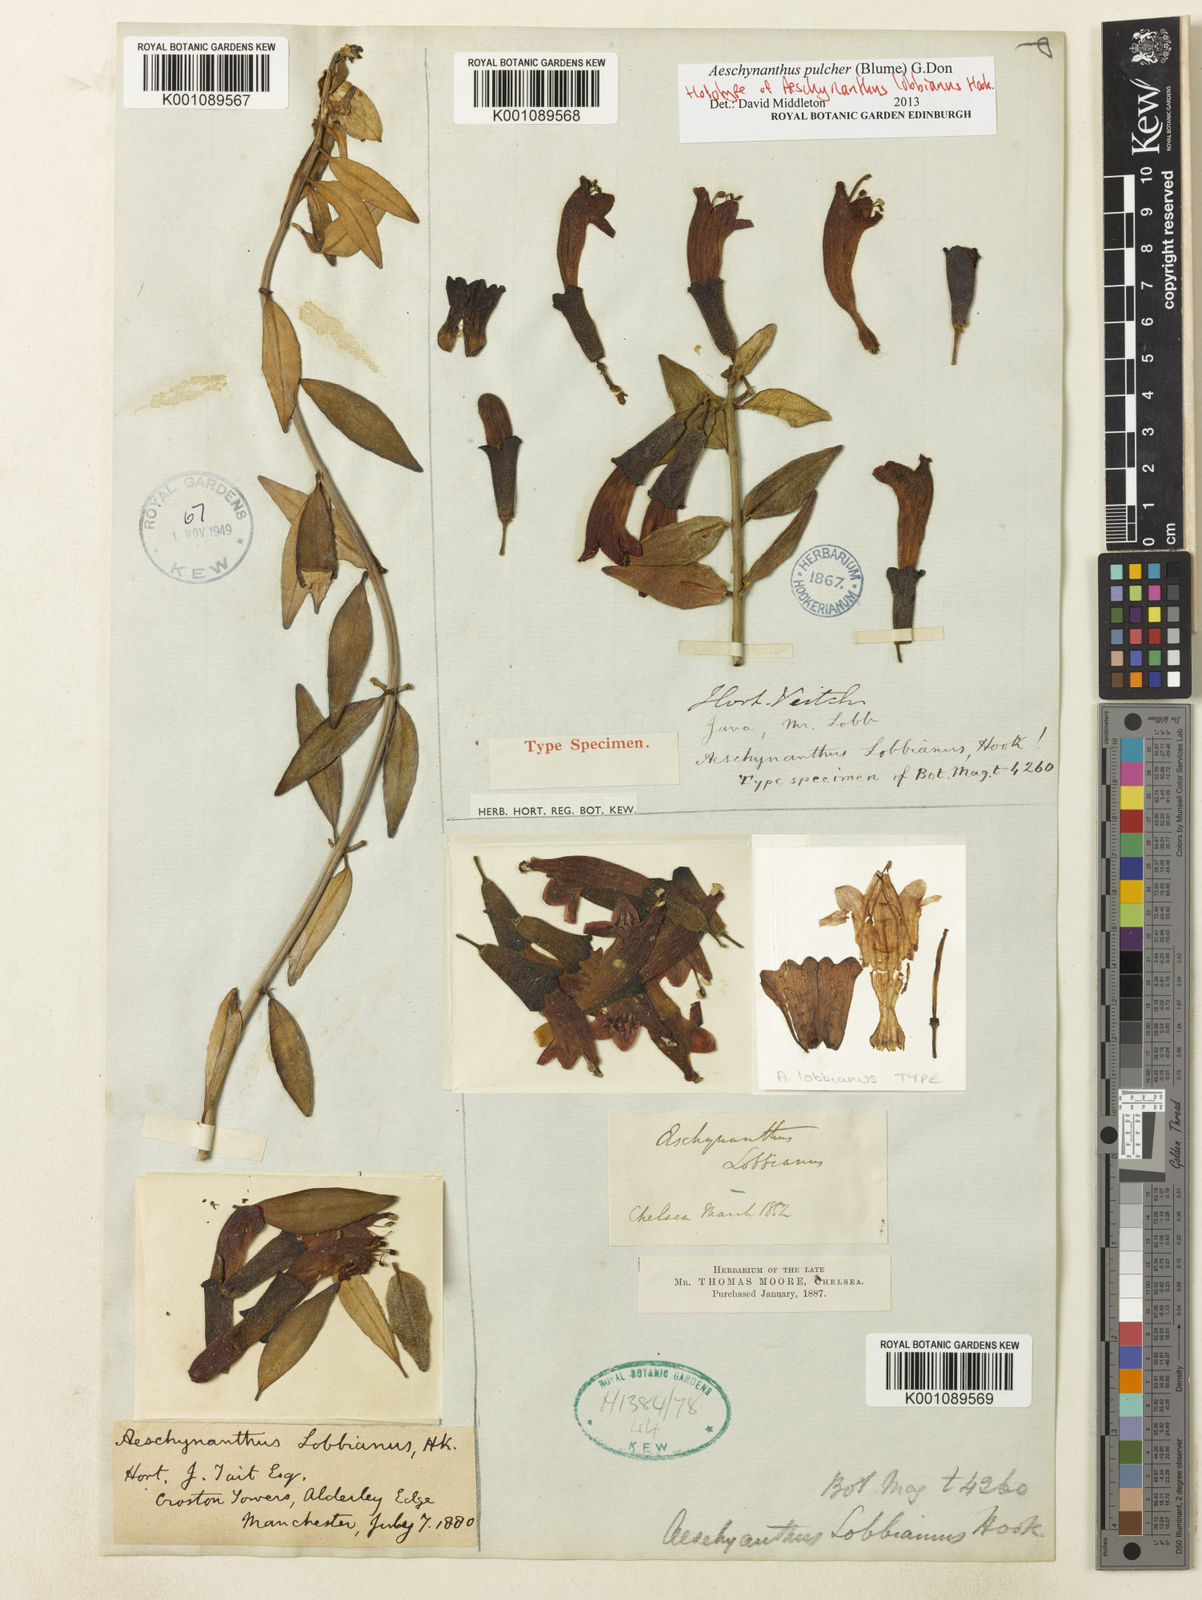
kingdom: Plantae
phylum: Tracheophyta
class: Magnoliopsida
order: Lamiales
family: Gesneriaceae
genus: Aeschynanthus
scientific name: Aeschynanthus pulcher
